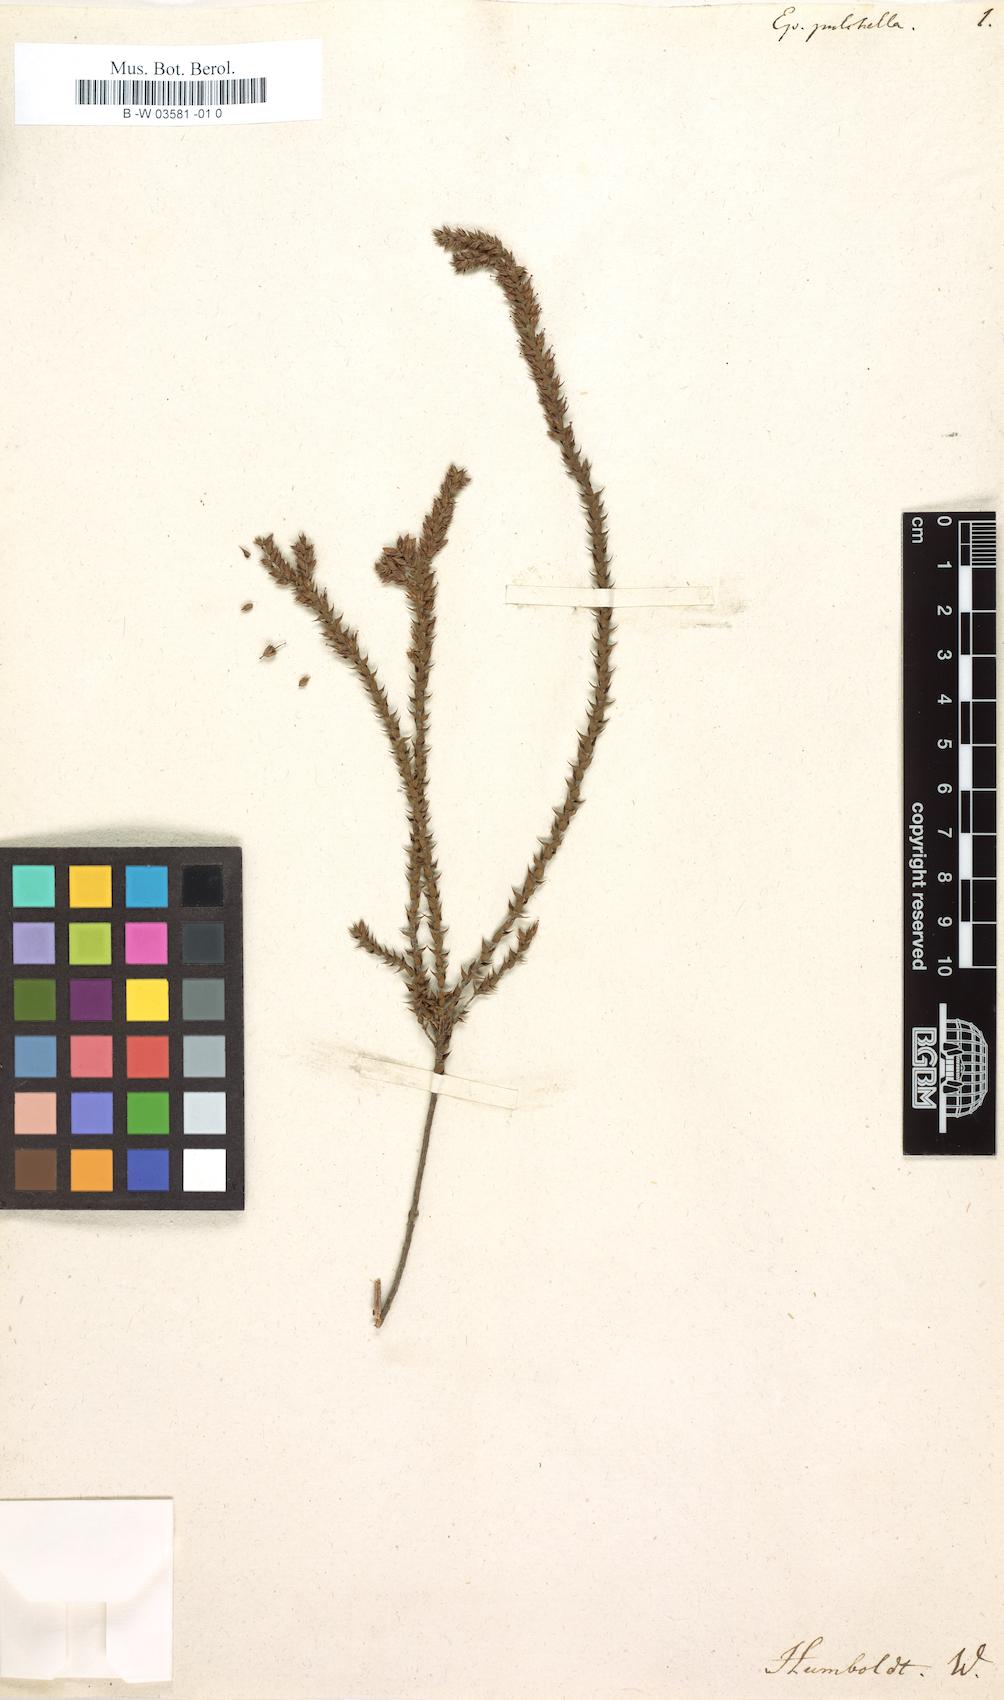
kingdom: Plantae
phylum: Tracheophyta
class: Magnoliopsida
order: Ericales
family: Ericaceae
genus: Epacris
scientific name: Epacris pulchella
